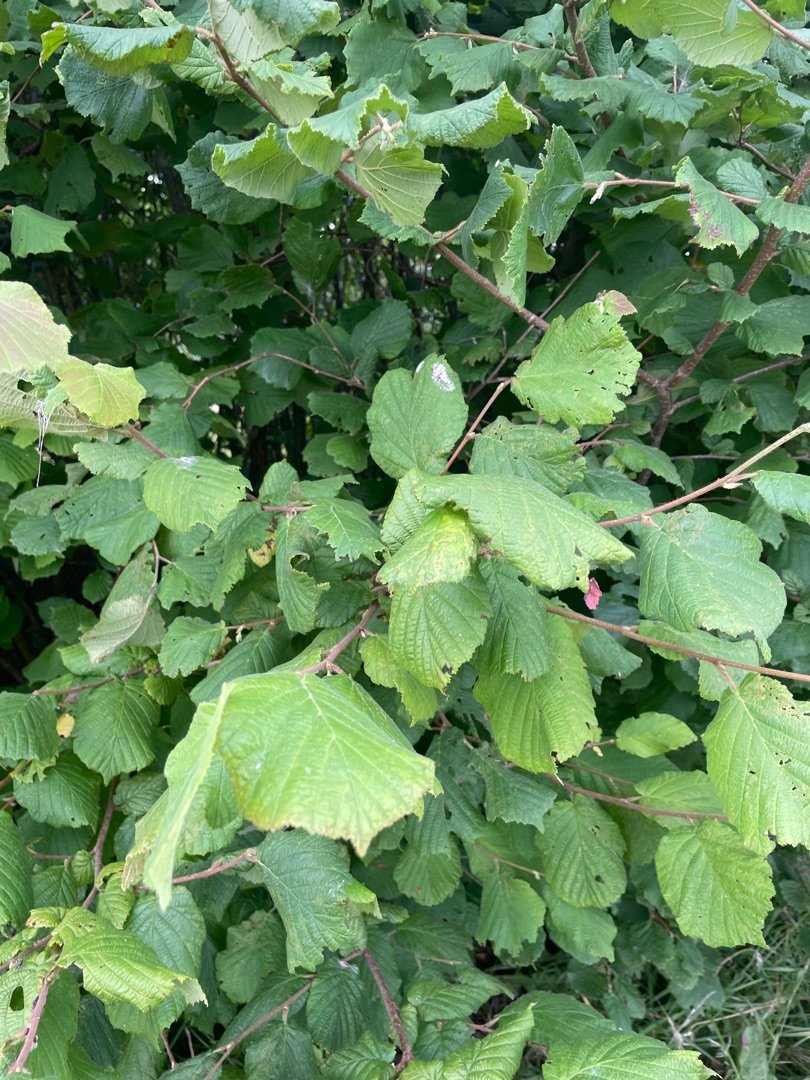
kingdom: Plantae
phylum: Tracheophyta
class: Magnoliopsida
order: Fagales
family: Betulaceae
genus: Corylus
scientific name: Corylus avellana
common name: Hassel
